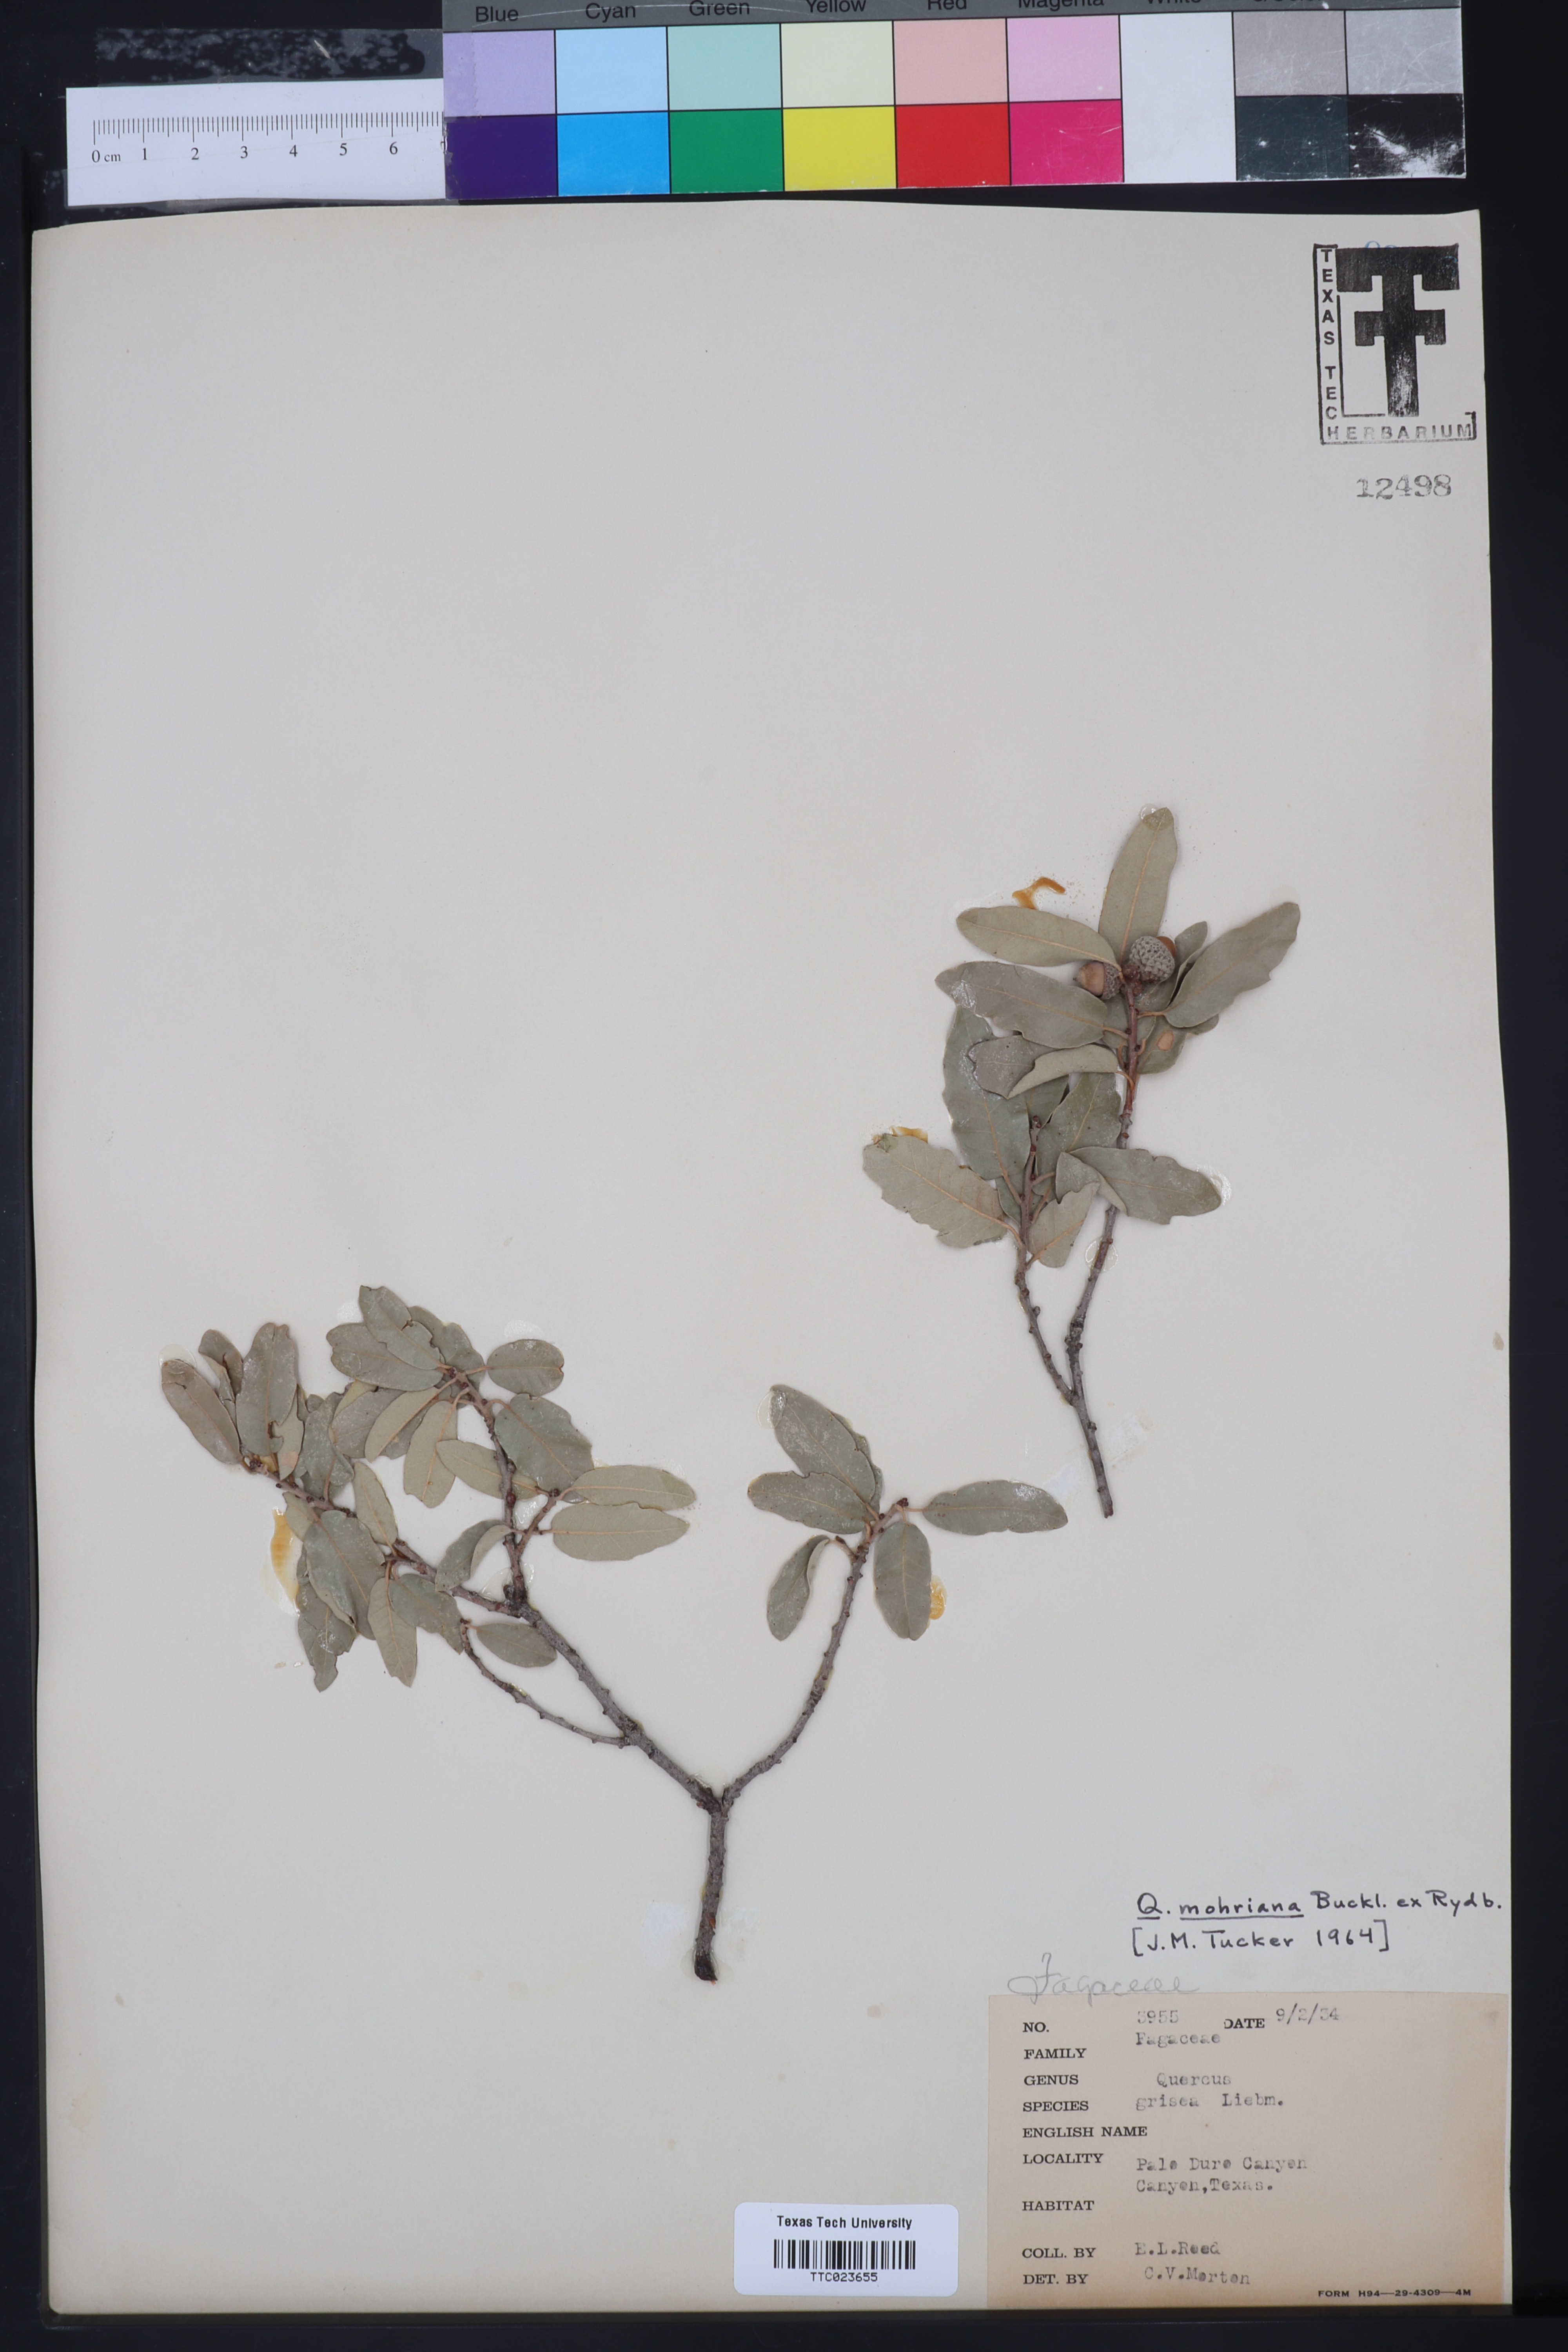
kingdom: Plantae
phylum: Tracheophyta
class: Magnoliopsida
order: Fagales
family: Fagaceae
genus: Quercus
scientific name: Quercus mohriana
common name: Mohr oak
